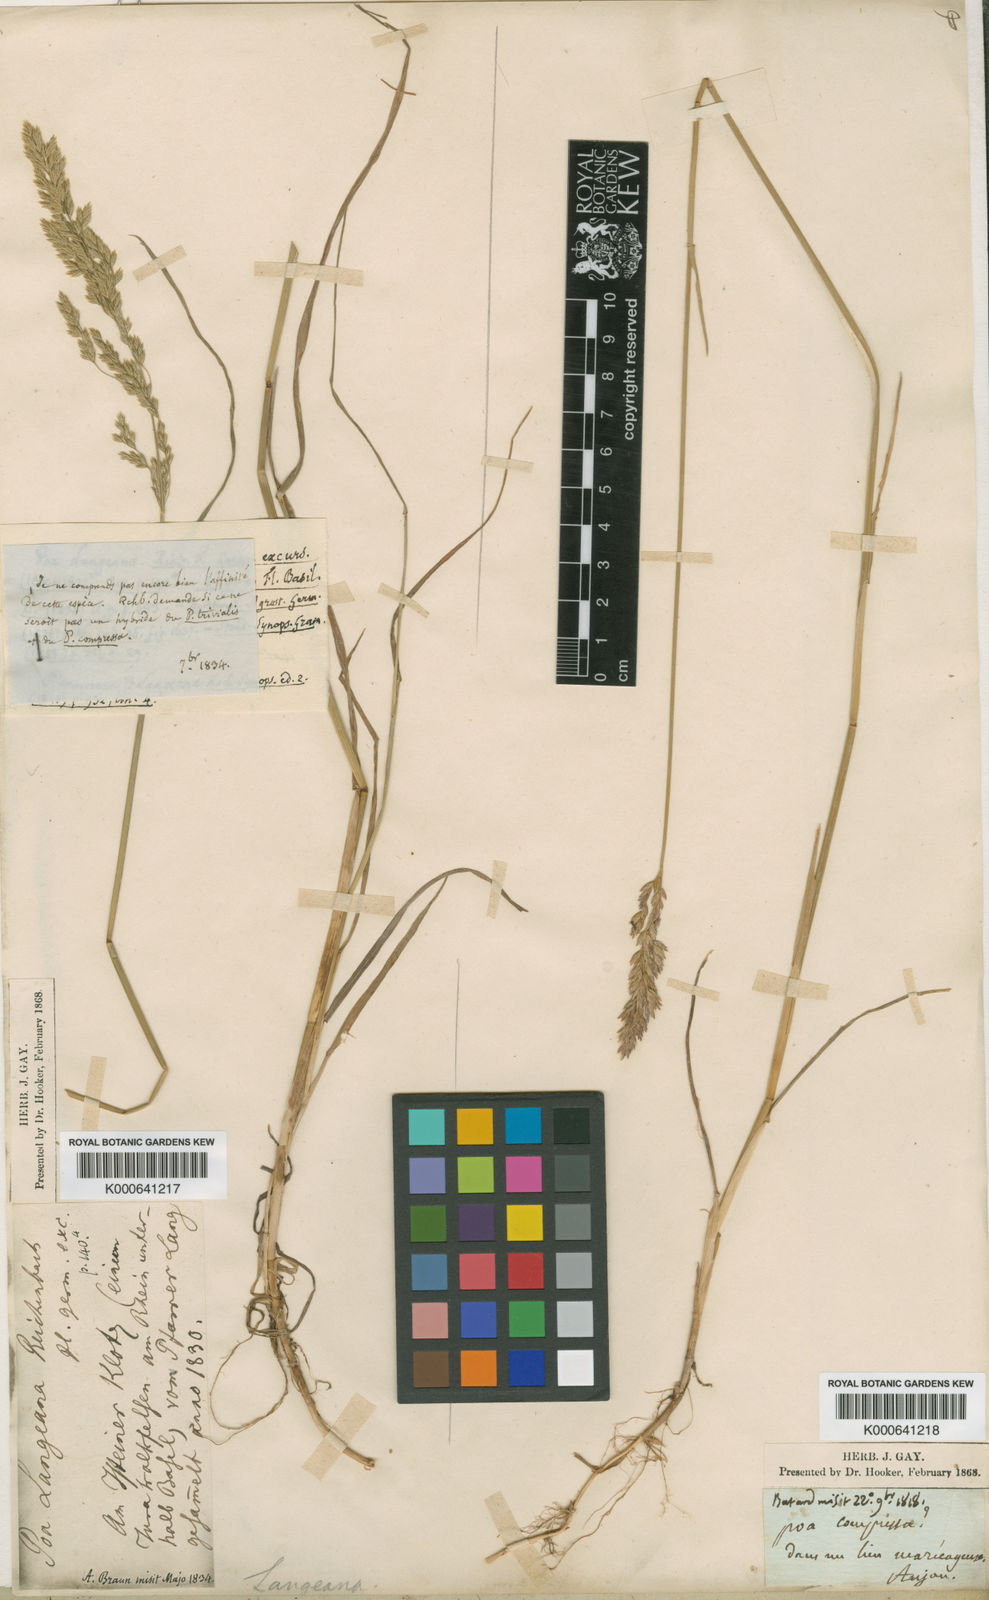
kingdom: Plantae
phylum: Tracheophyta
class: Liliopsida
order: Poales
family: Poaceae
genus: Poa
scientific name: Poa compressa
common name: Canada bluegrass
